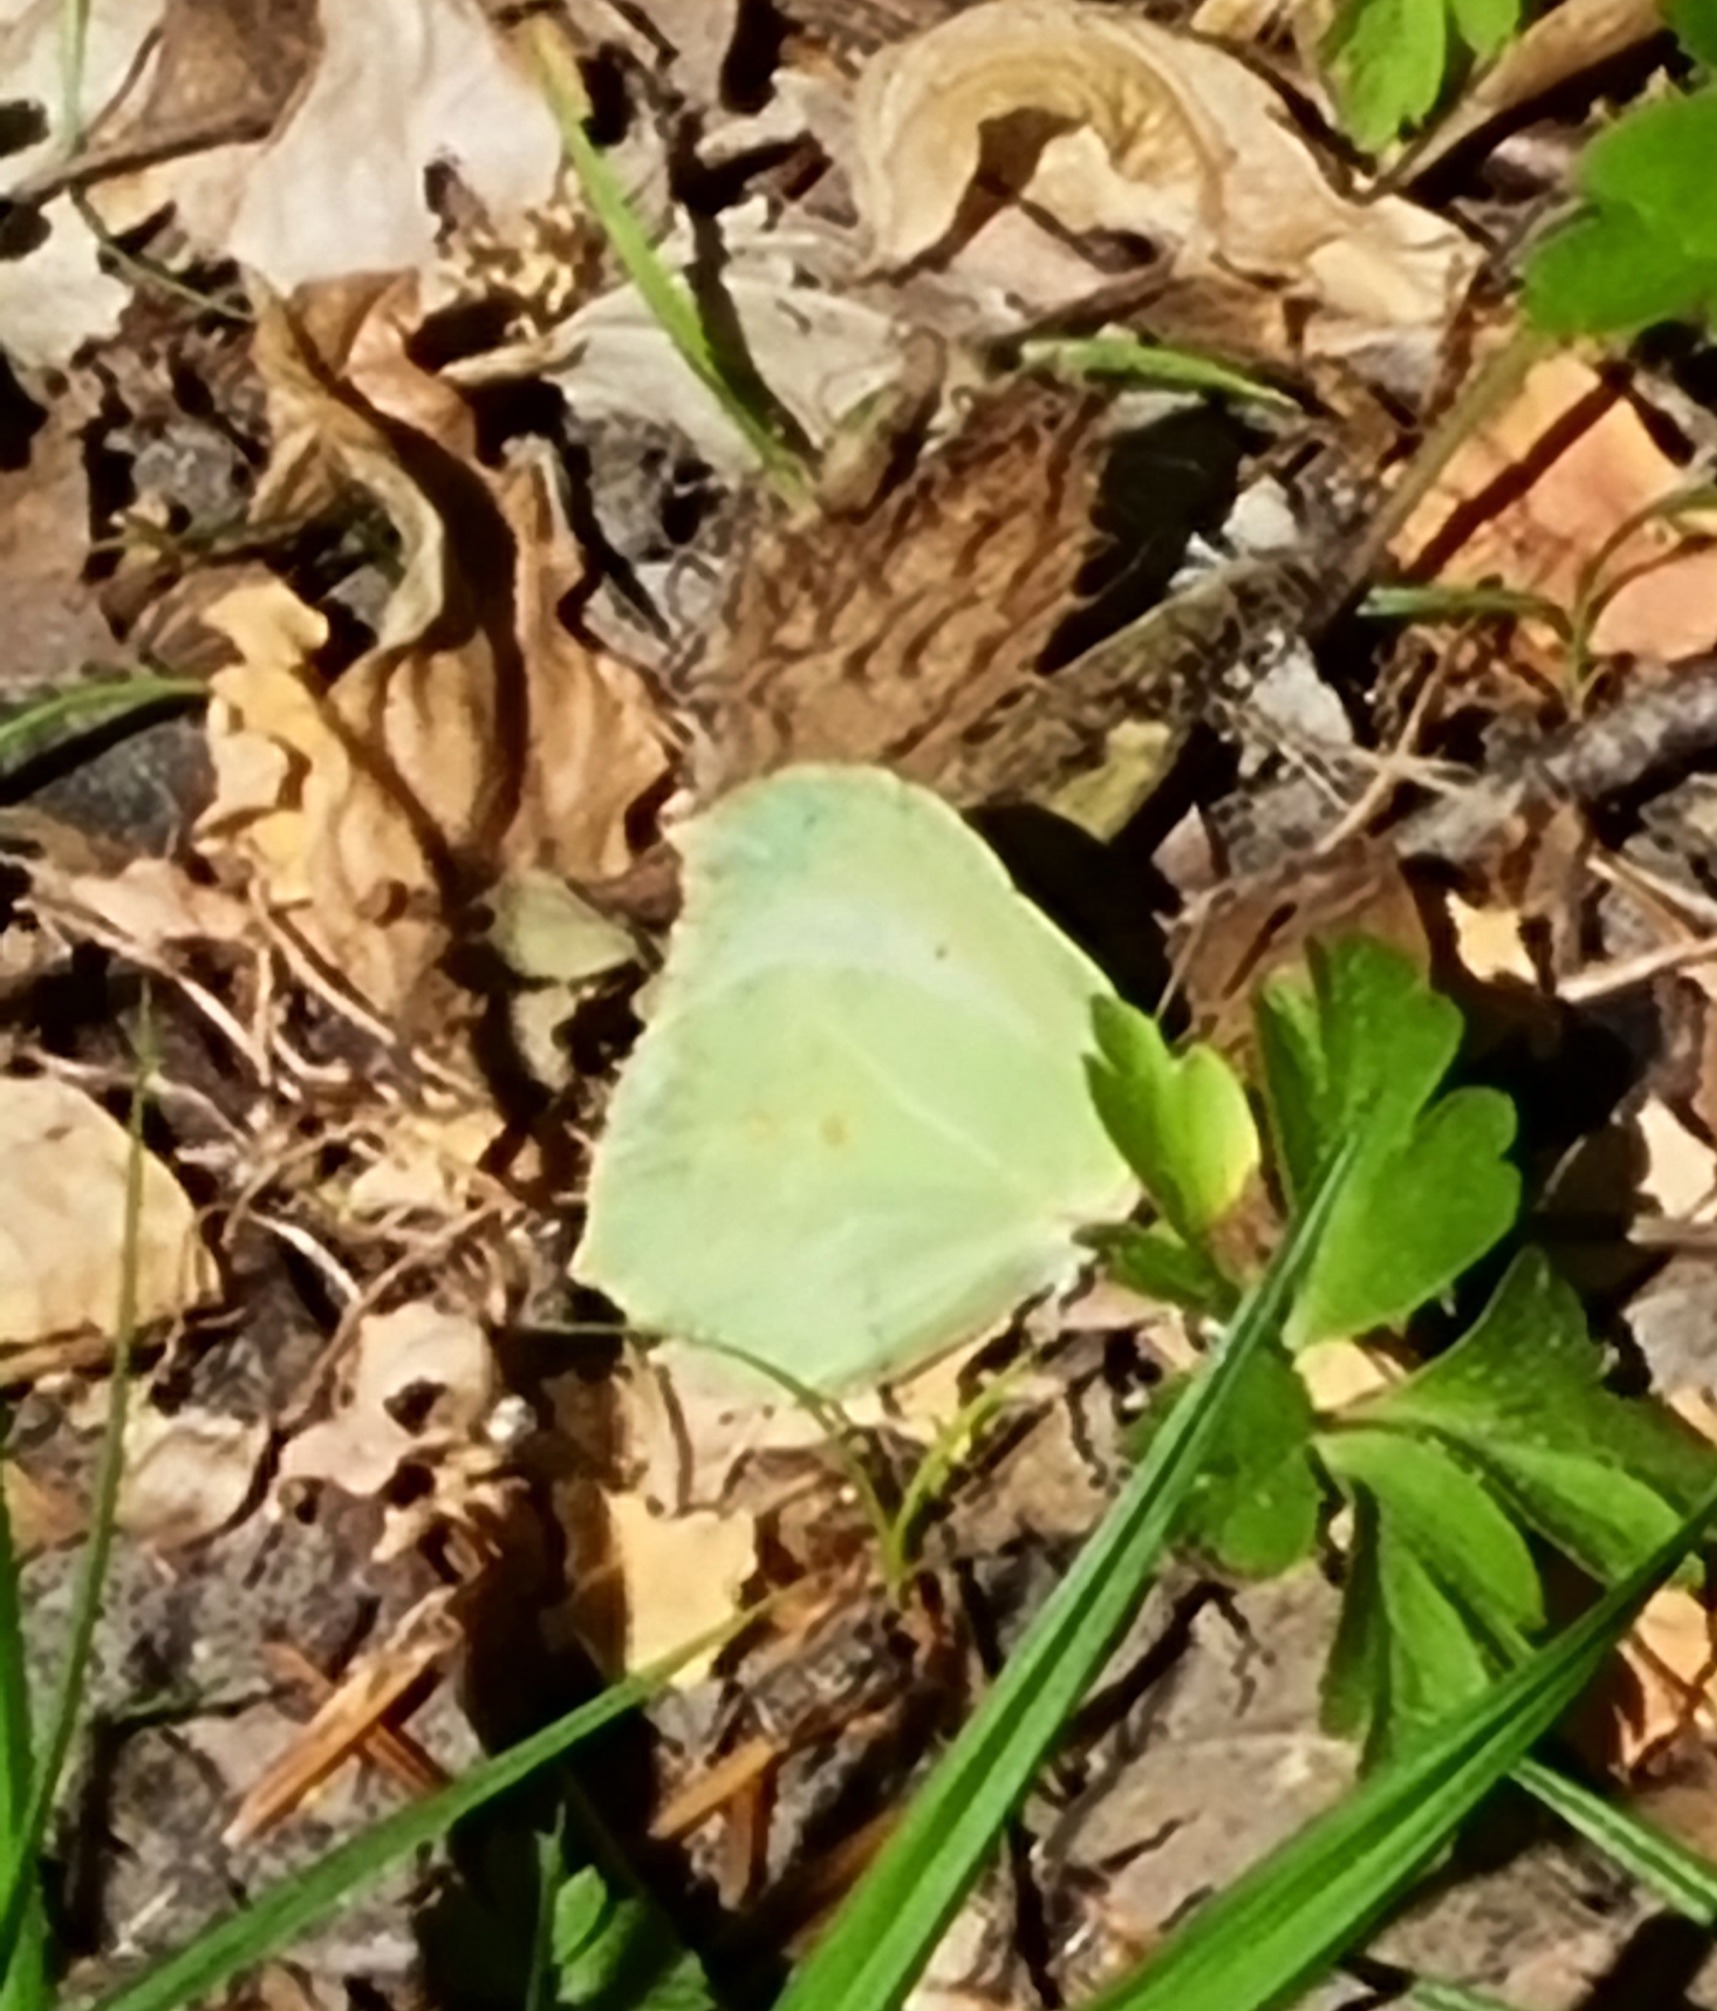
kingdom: Animalia
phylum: Arthropoda
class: Insecta
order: Lepidoptera
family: Pieridae
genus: Gonepteryx
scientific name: Gonepteryx rhamni
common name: Citronsommerfugl
